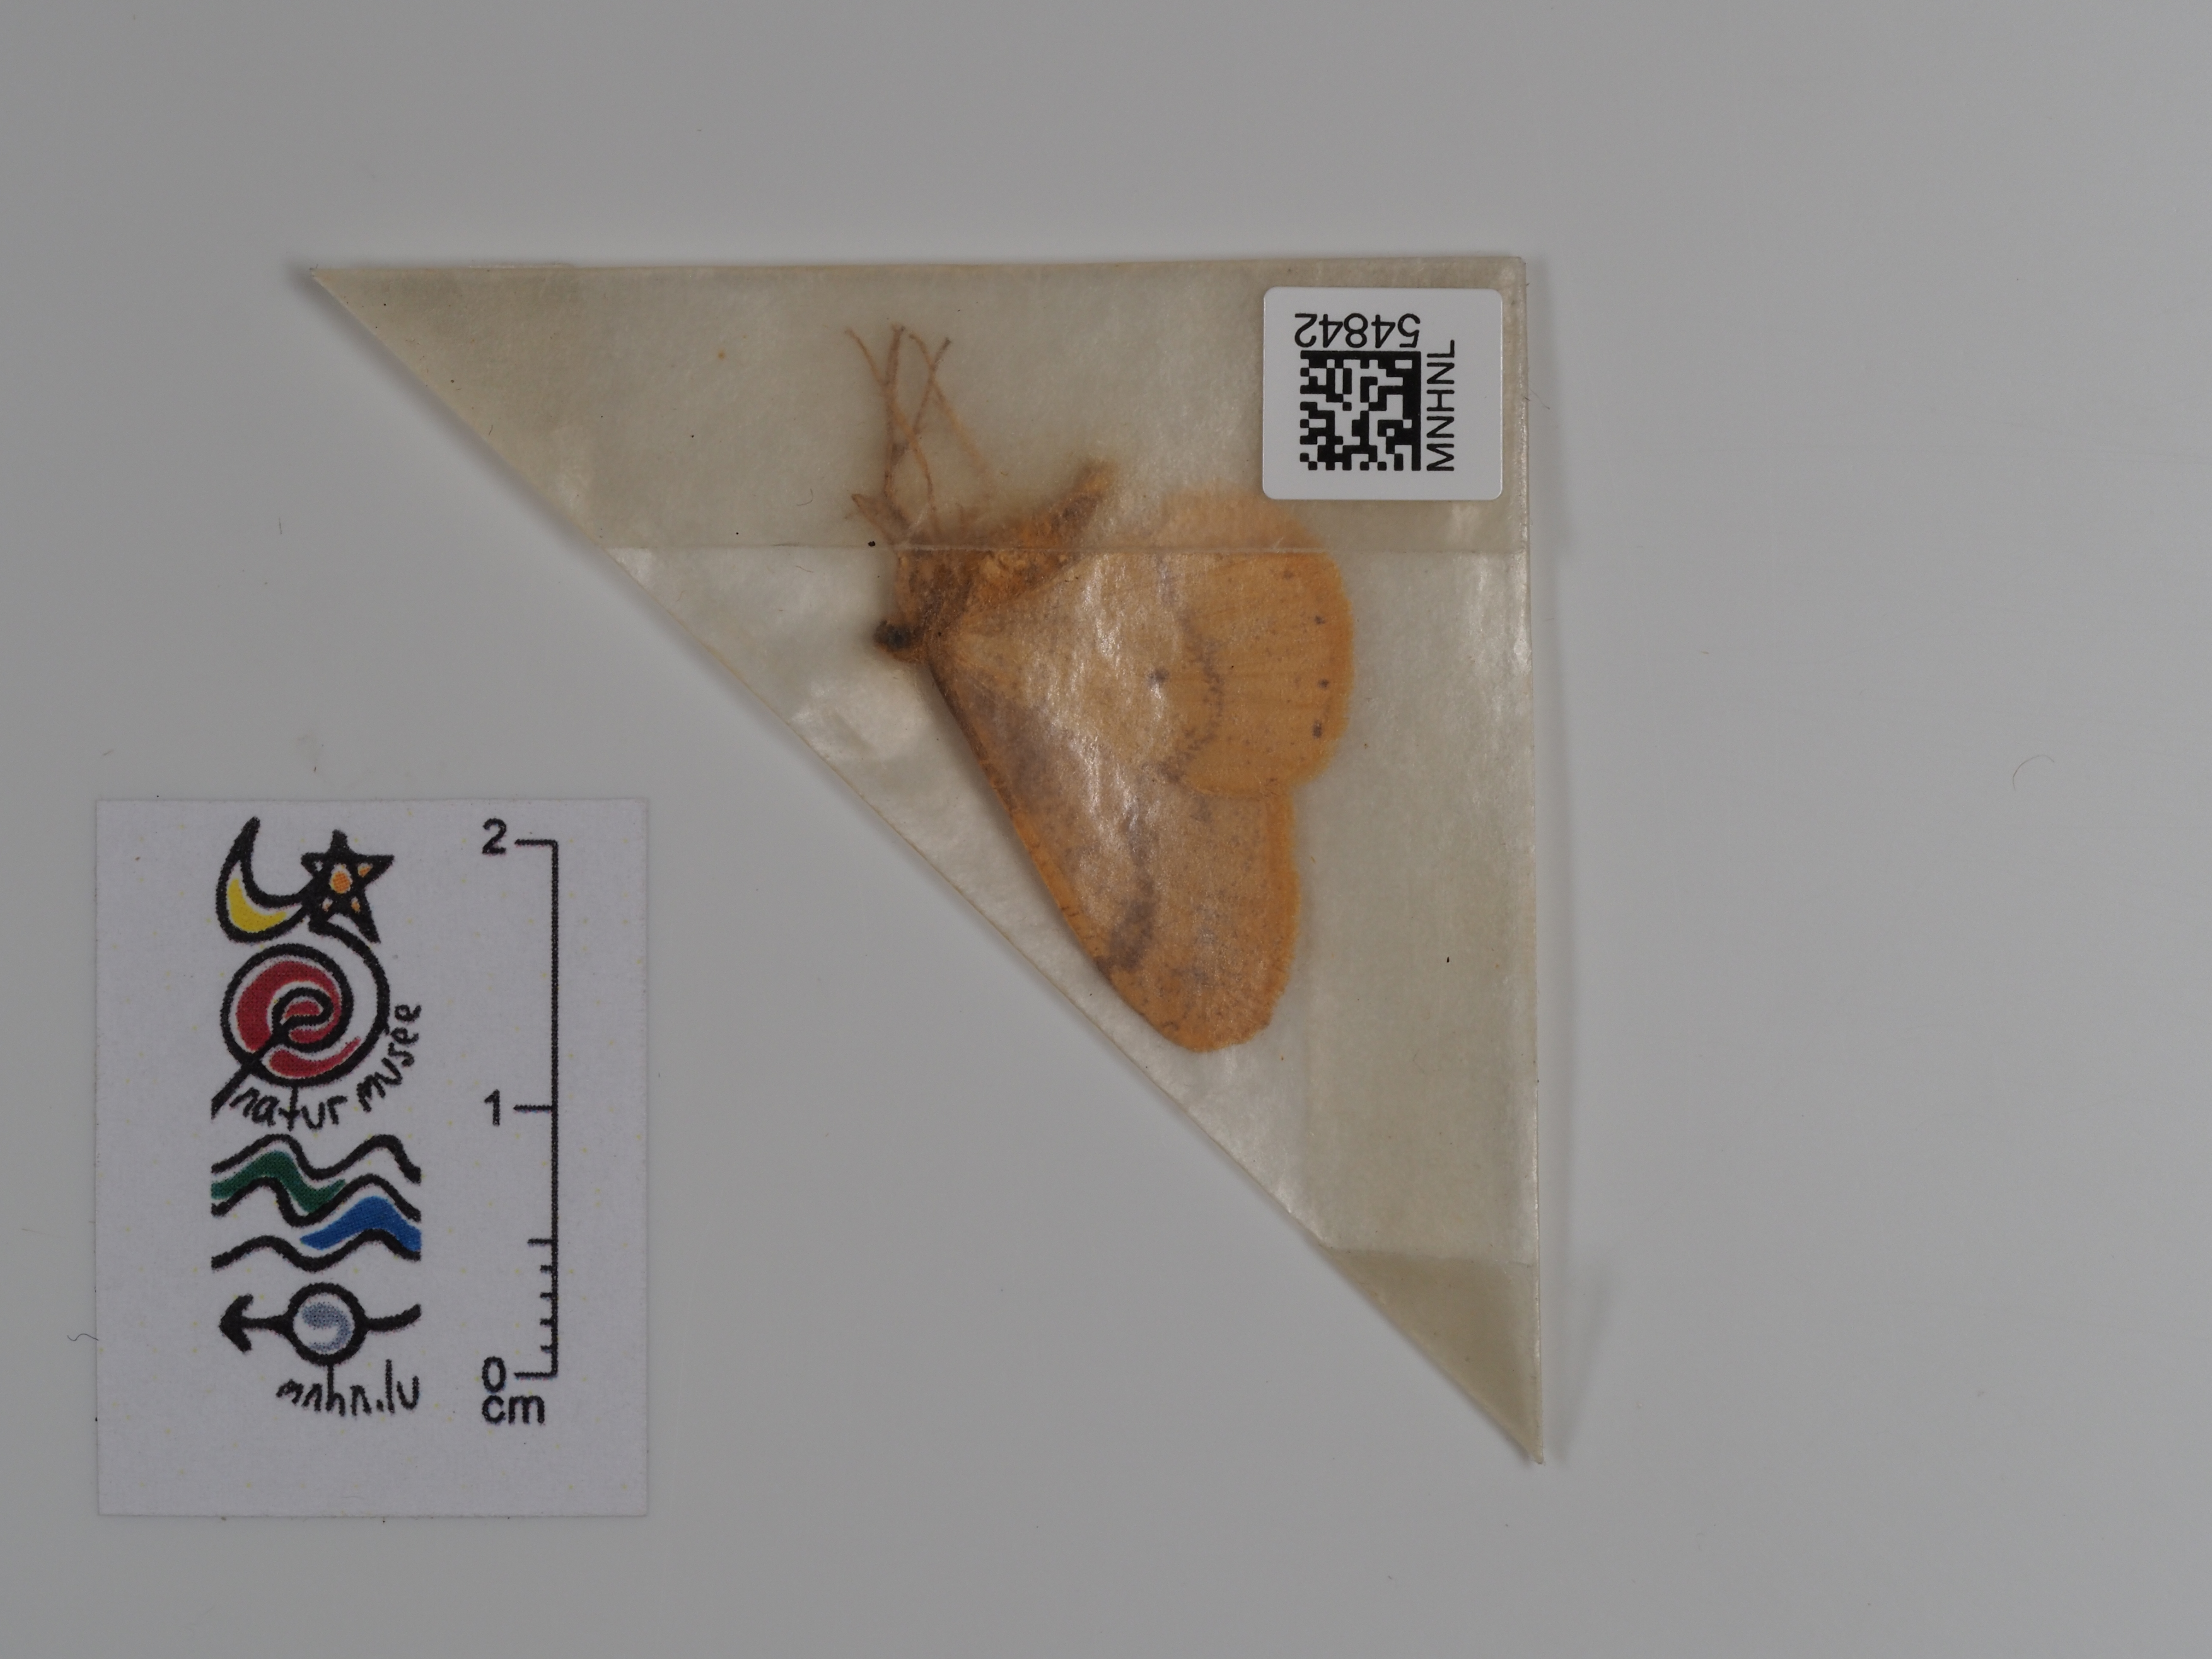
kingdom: Animalia
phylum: Arthropoda
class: Insecta
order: Lepidoptera
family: Geometridae
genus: Agriopis
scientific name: Agriopis aurantiaria
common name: Scarce umber
